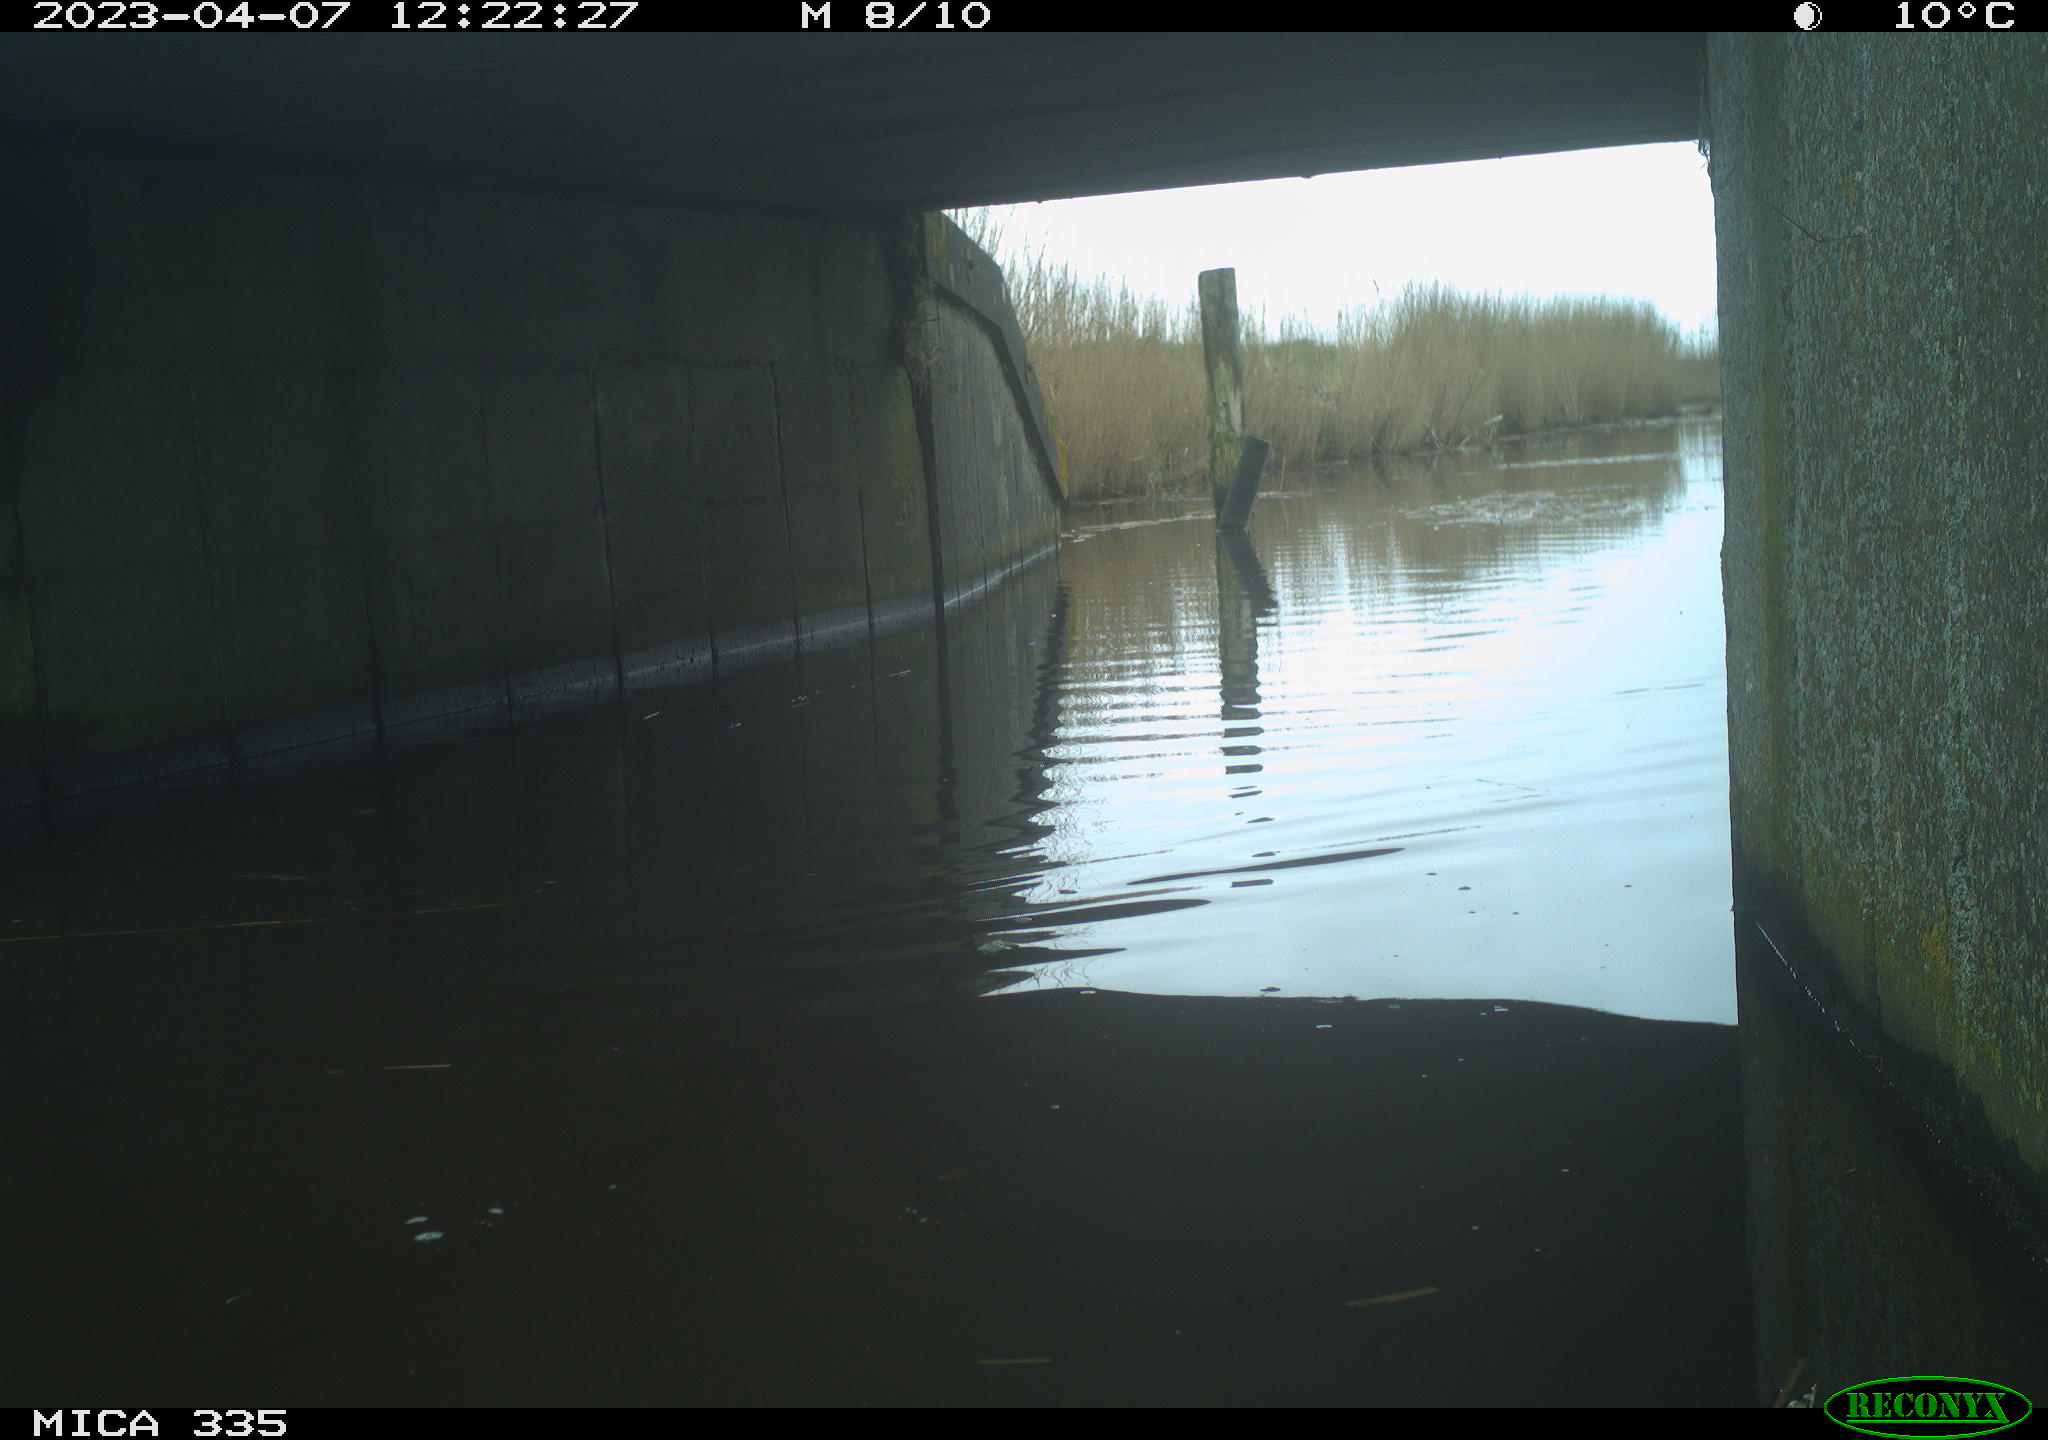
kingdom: Animalia
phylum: Chordata
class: Aves
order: Anseriformes
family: Anatidae
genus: Anas
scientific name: Anas platyrhynchos
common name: Mallard
